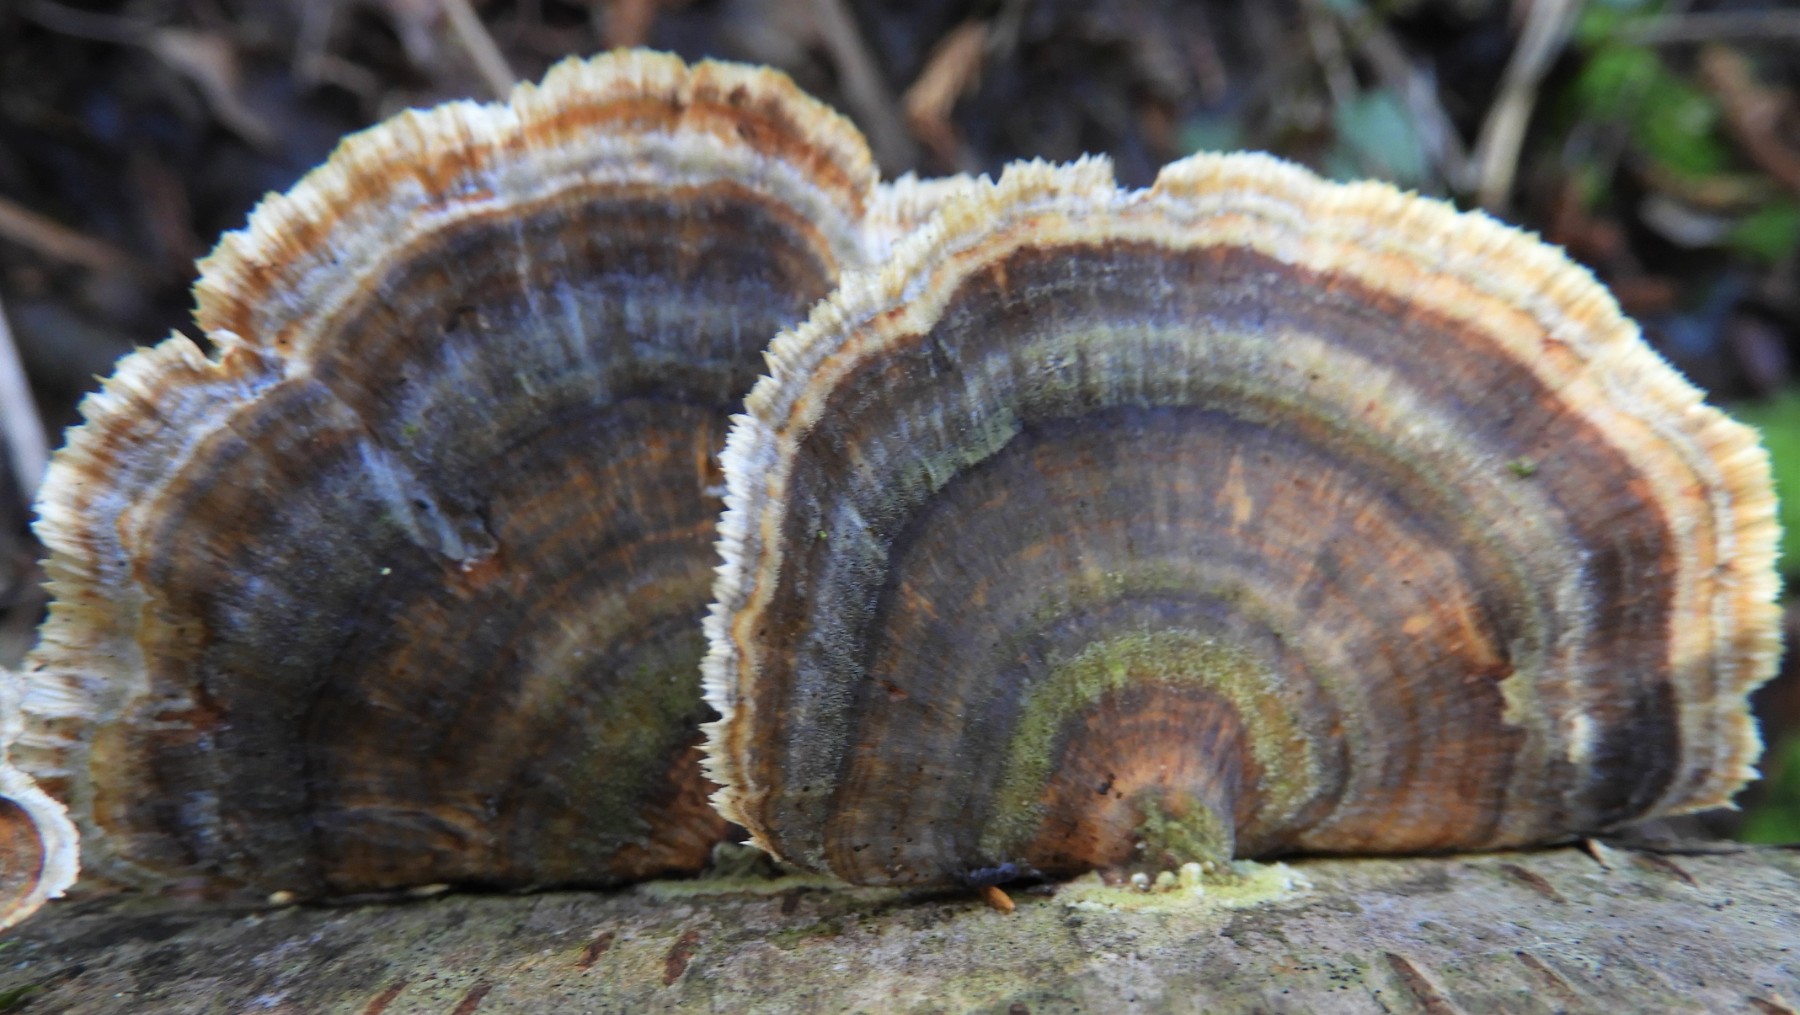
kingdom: Fungi
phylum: Basidiomycota
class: Agaricomycetes
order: Polyporales
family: Polyporaceae
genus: Trametes
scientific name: Trametes versicolor
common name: broget læderporesvamp
